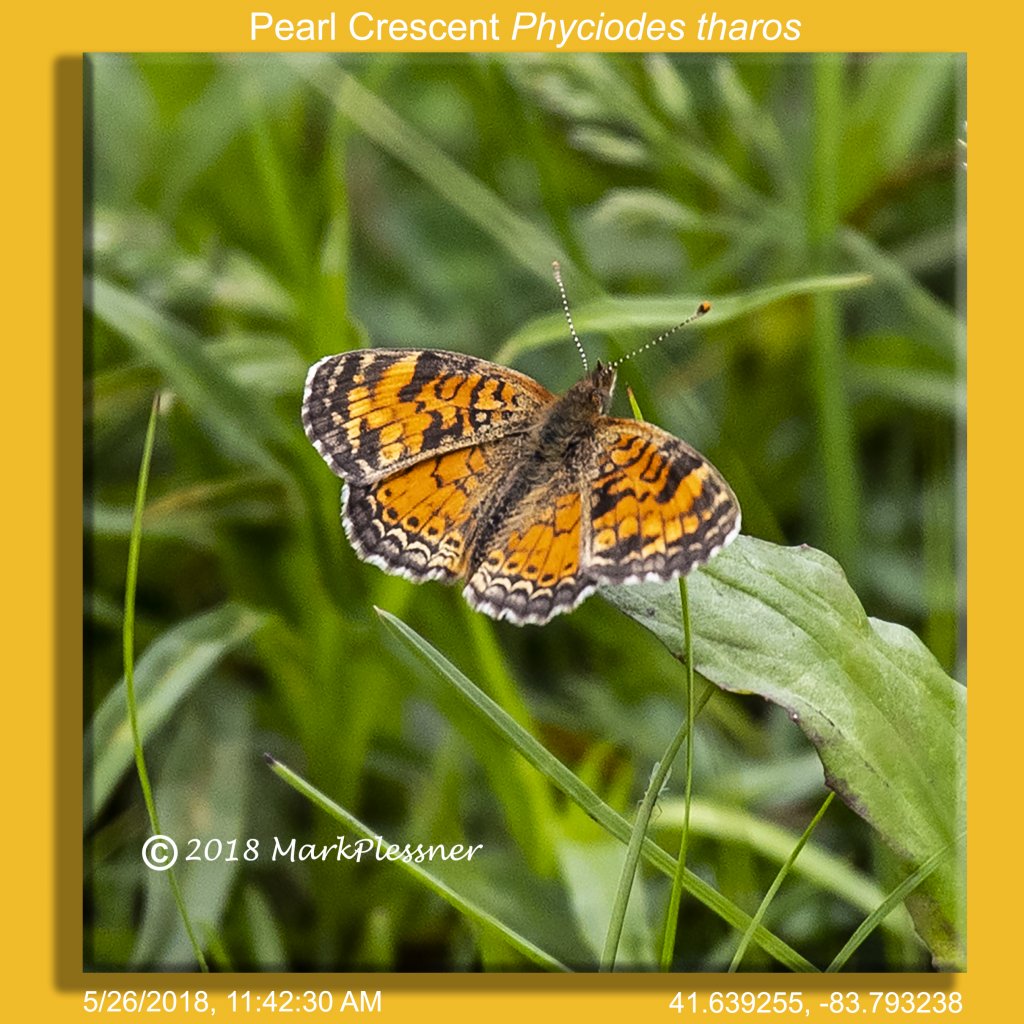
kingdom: Animalia
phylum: Arthropoda
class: Insecta
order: Lepidoptera
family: Nymphalidae
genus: Phyciodes
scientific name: Phyciodes tharos
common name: Pearl Crescent
